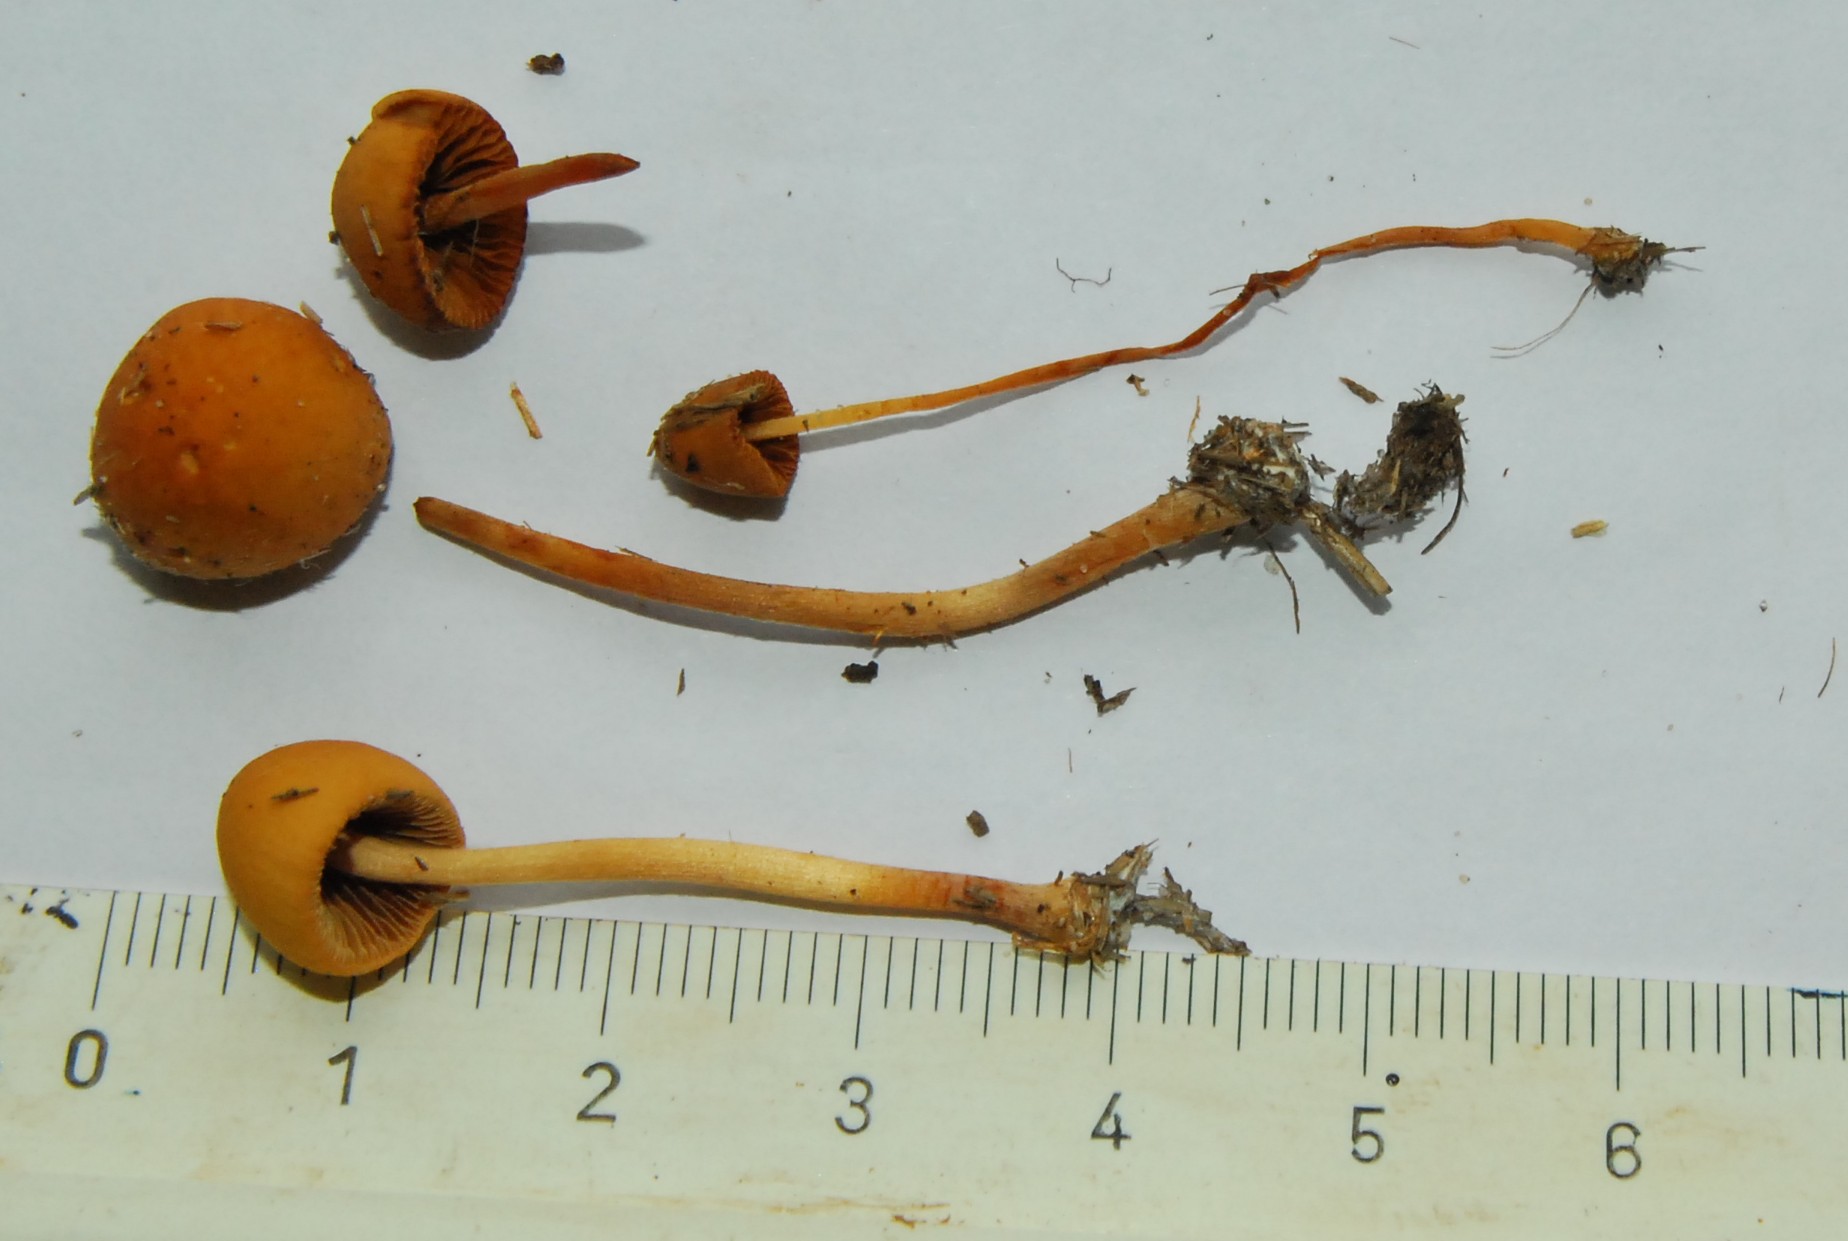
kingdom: Fungi
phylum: Basidiomycota
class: Agaricomycetes
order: Agaricales
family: Bolbitiaceae
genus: Conocybe
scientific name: Conocybe pubescens
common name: gødnings-keglehat
